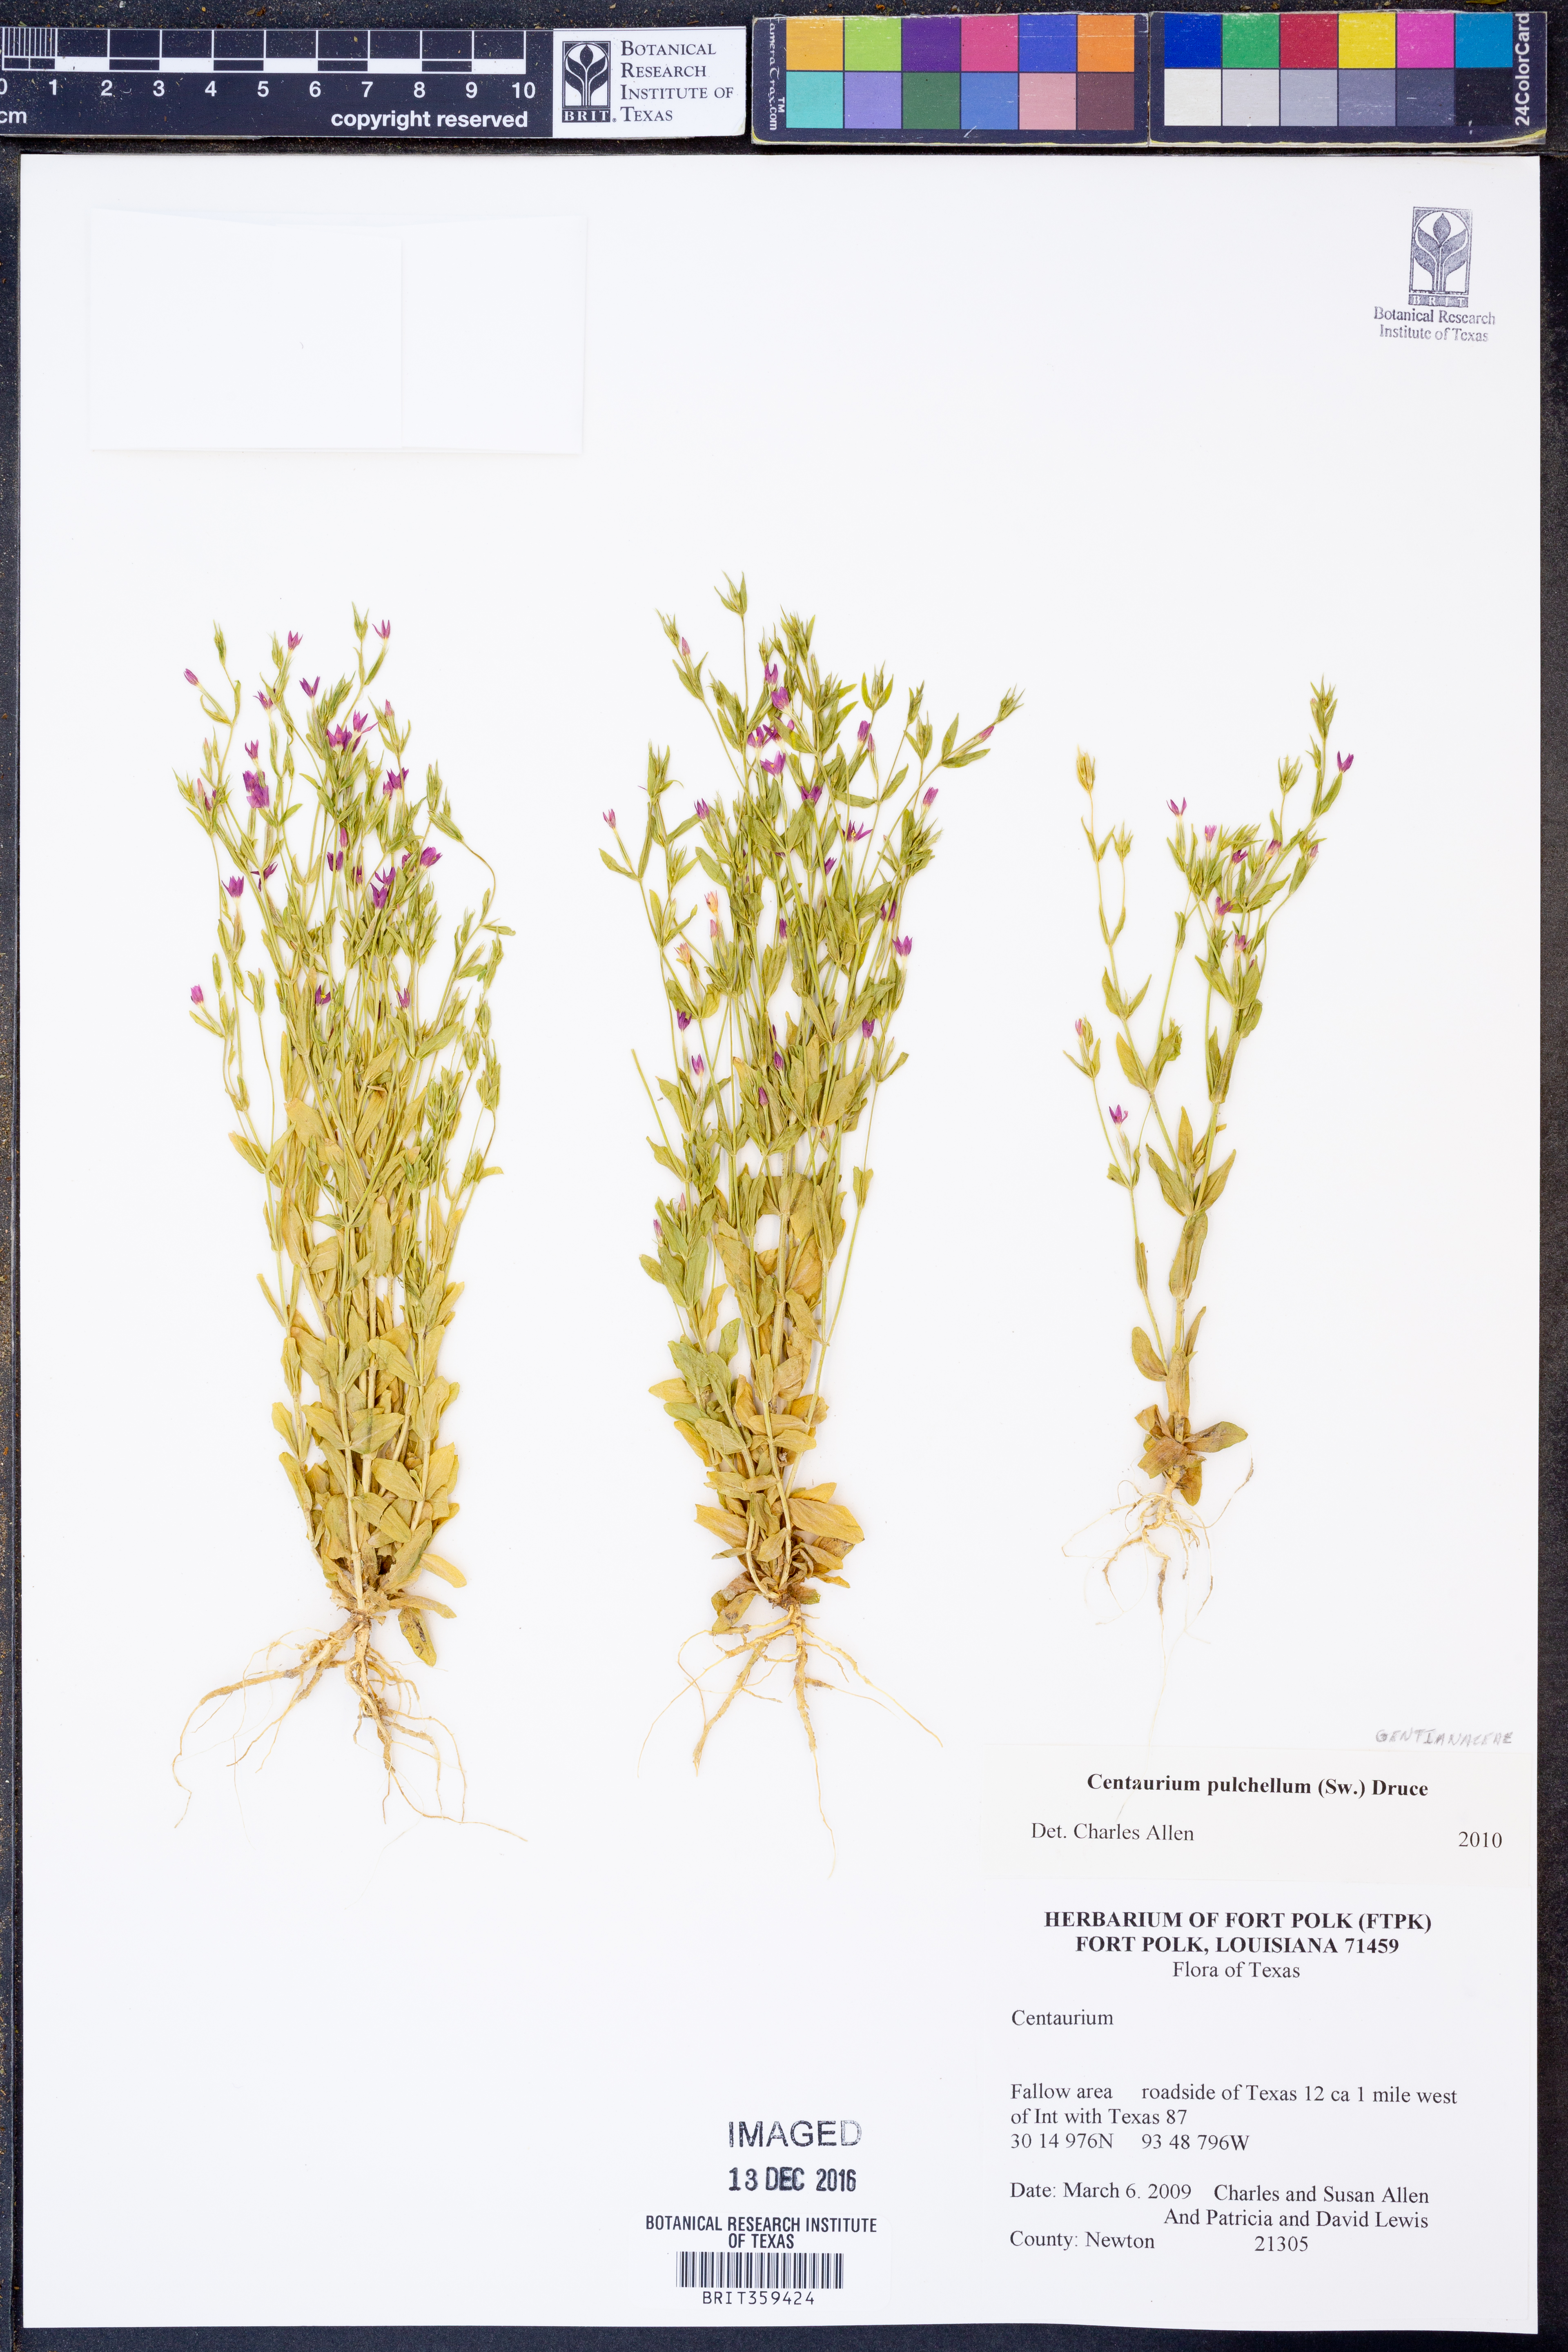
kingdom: Plantae
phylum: Tracheophyta
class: Magnoliopsida
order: Gentianales
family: Gentianaceae
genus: Centaurium
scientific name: Centaurium pulchellum
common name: Lesser centaury
